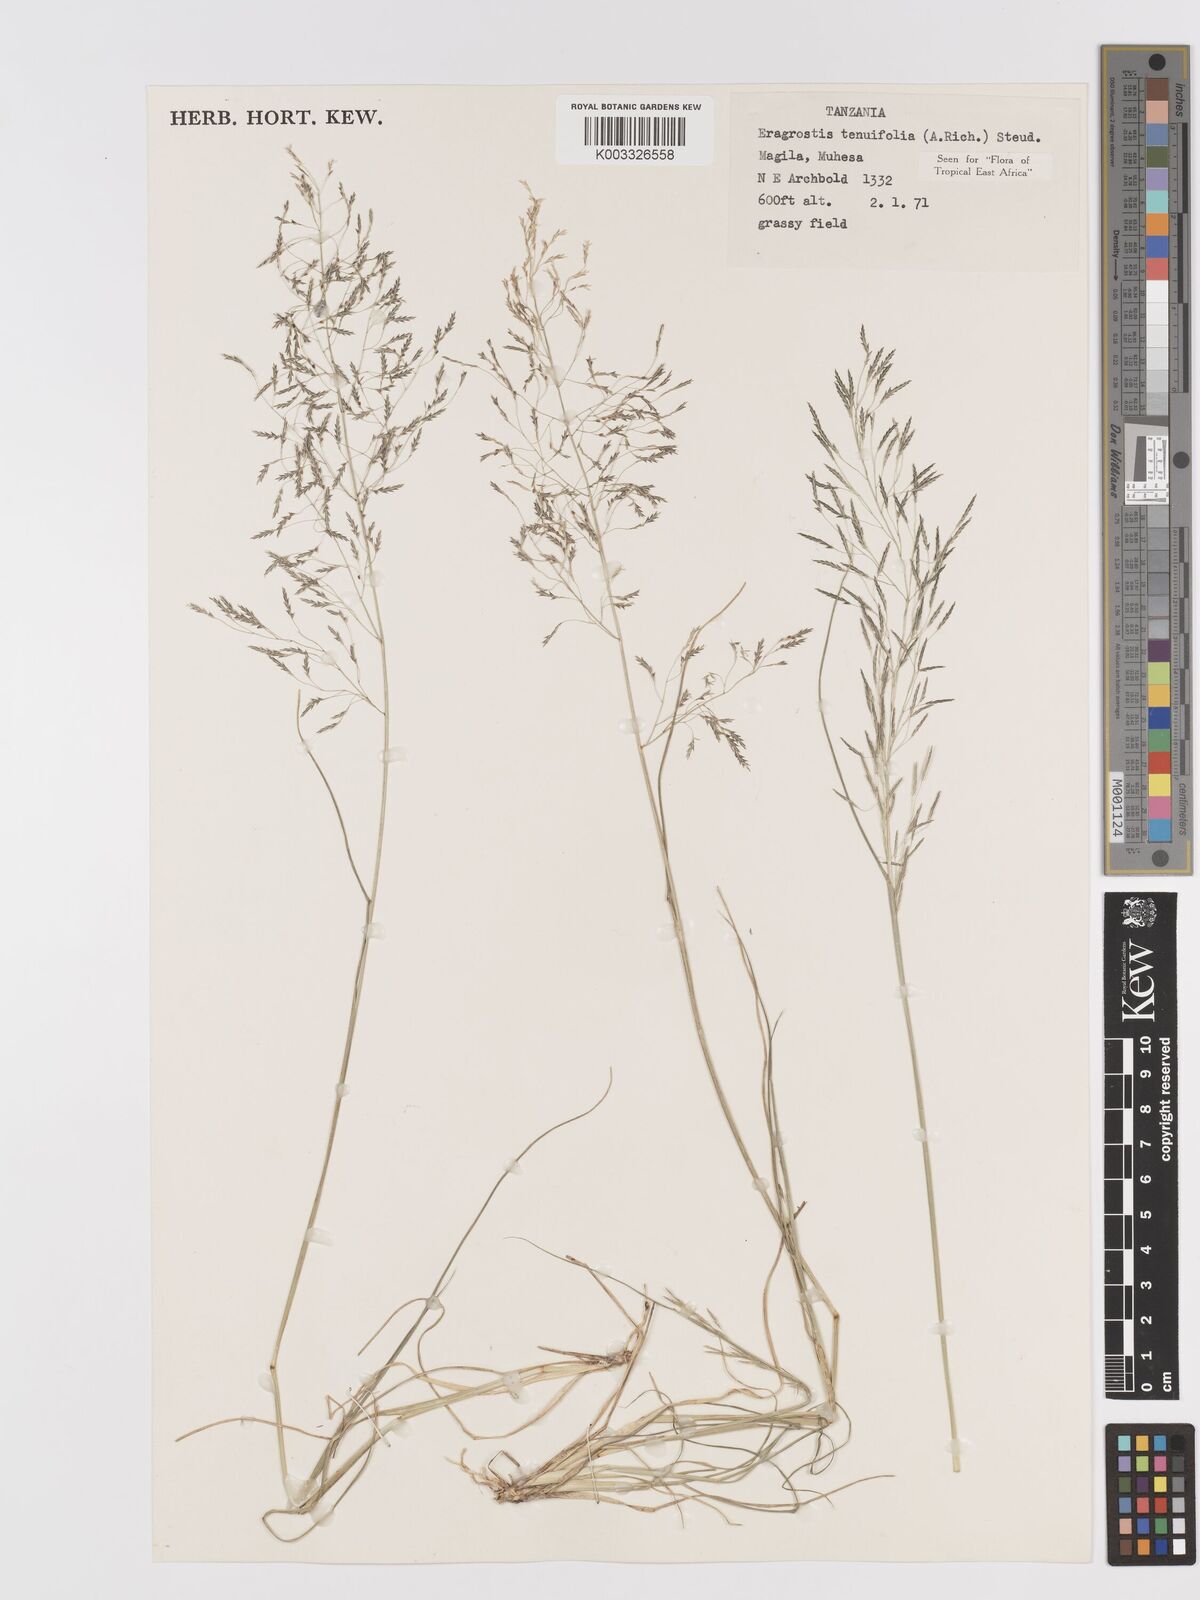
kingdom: Plantae
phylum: Tracheophyta
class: Liliopsida
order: Poales
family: Poaceae
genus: Eragrostis
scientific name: Eragrostis tenuifolia
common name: Elastic grass
